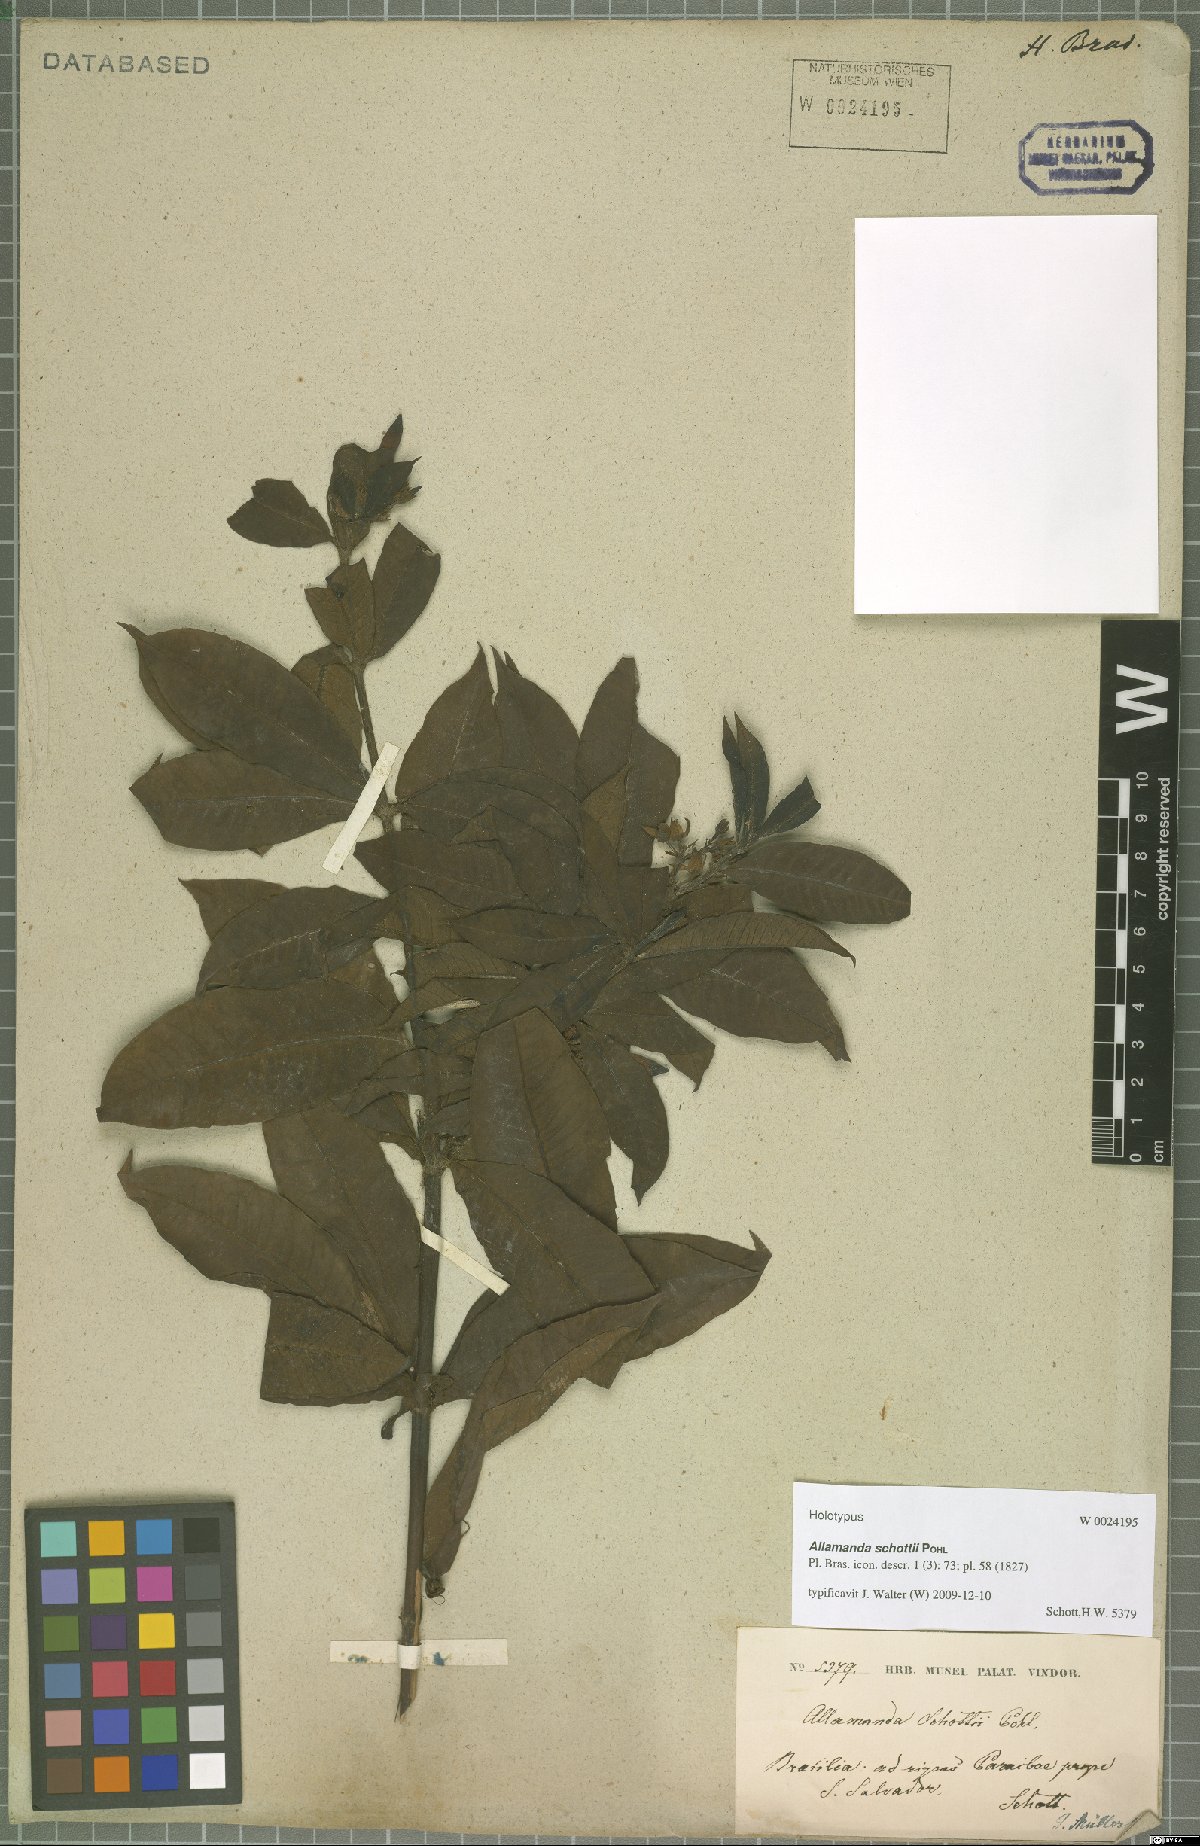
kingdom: Plantae
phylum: Tracheophyta
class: Magnoliopsida
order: Gentianales
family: Apocynaceae
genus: Allamanda
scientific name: Allamanda schottii
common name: Bush allamanda
